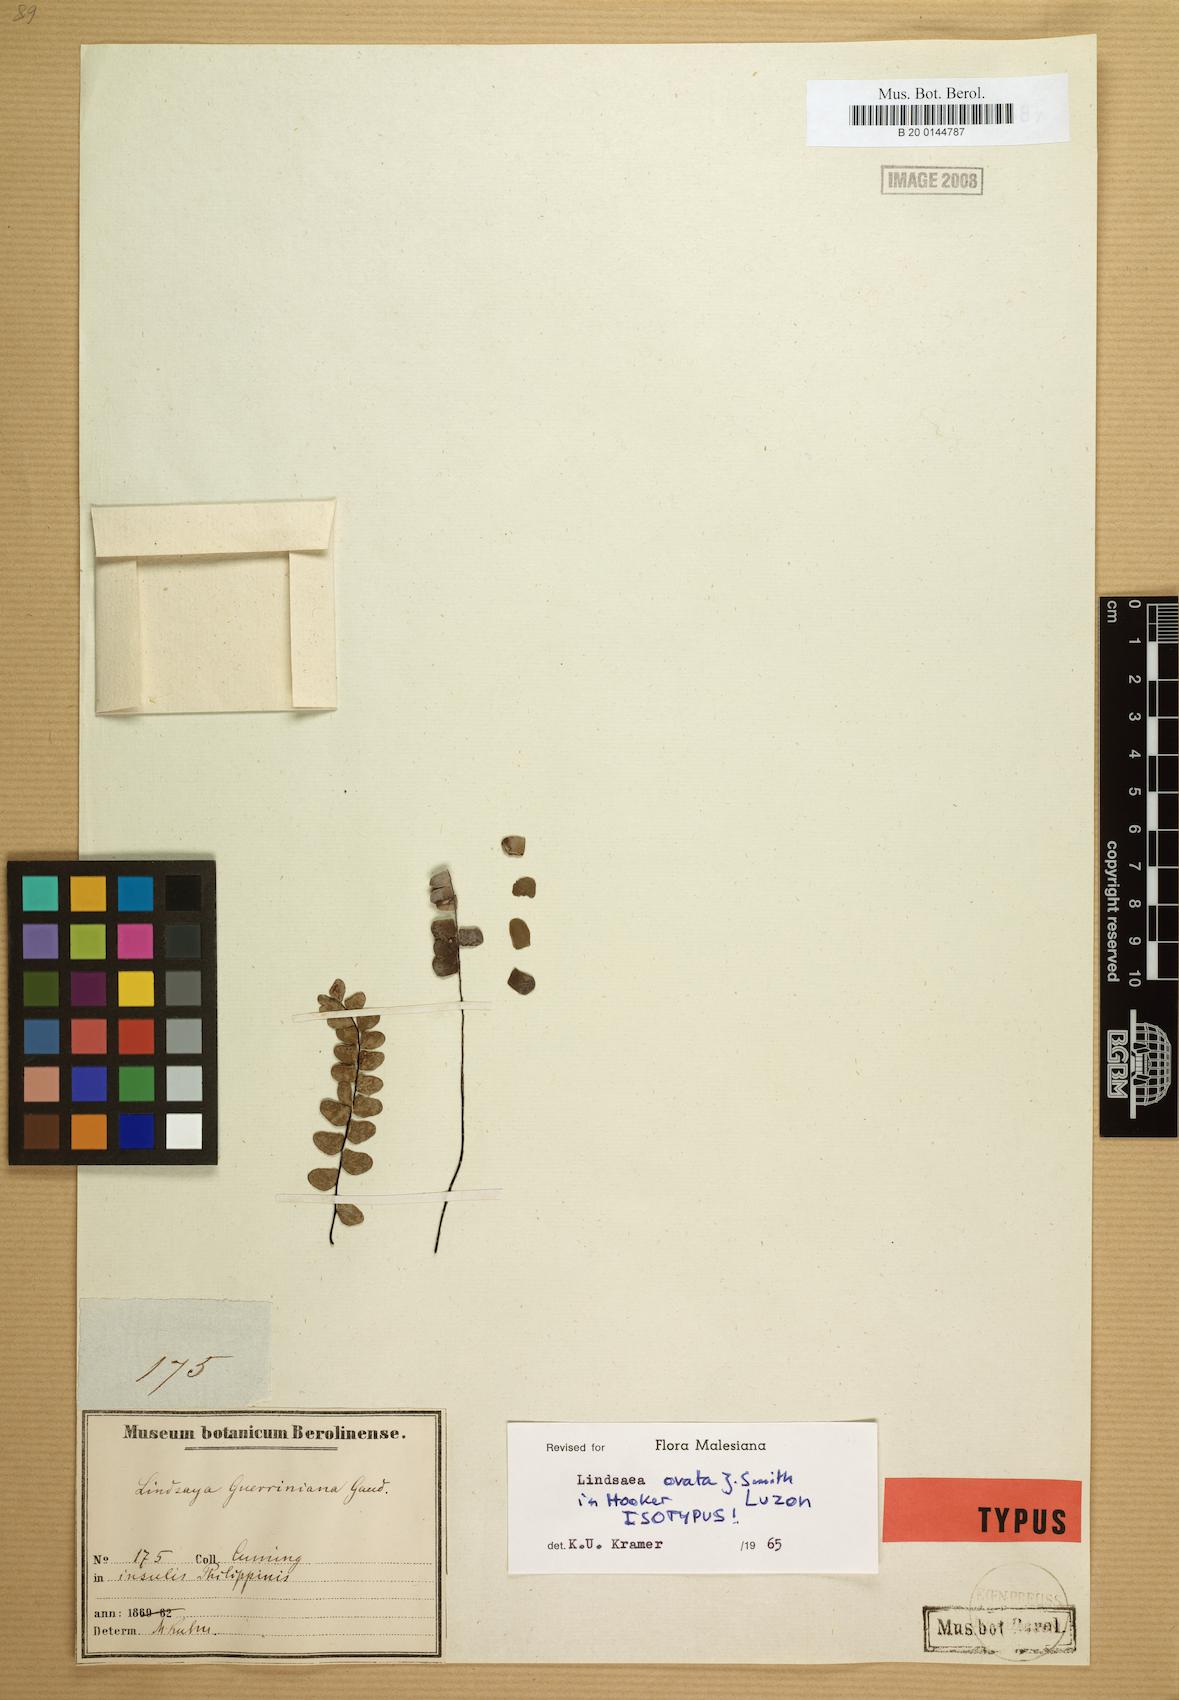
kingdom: Plantae
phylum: Tracheophyta
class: Polypodiopsida
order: Polypodiales
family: Lindsaeaceae
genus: Lindsaea
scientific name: Lindsaea ovata
